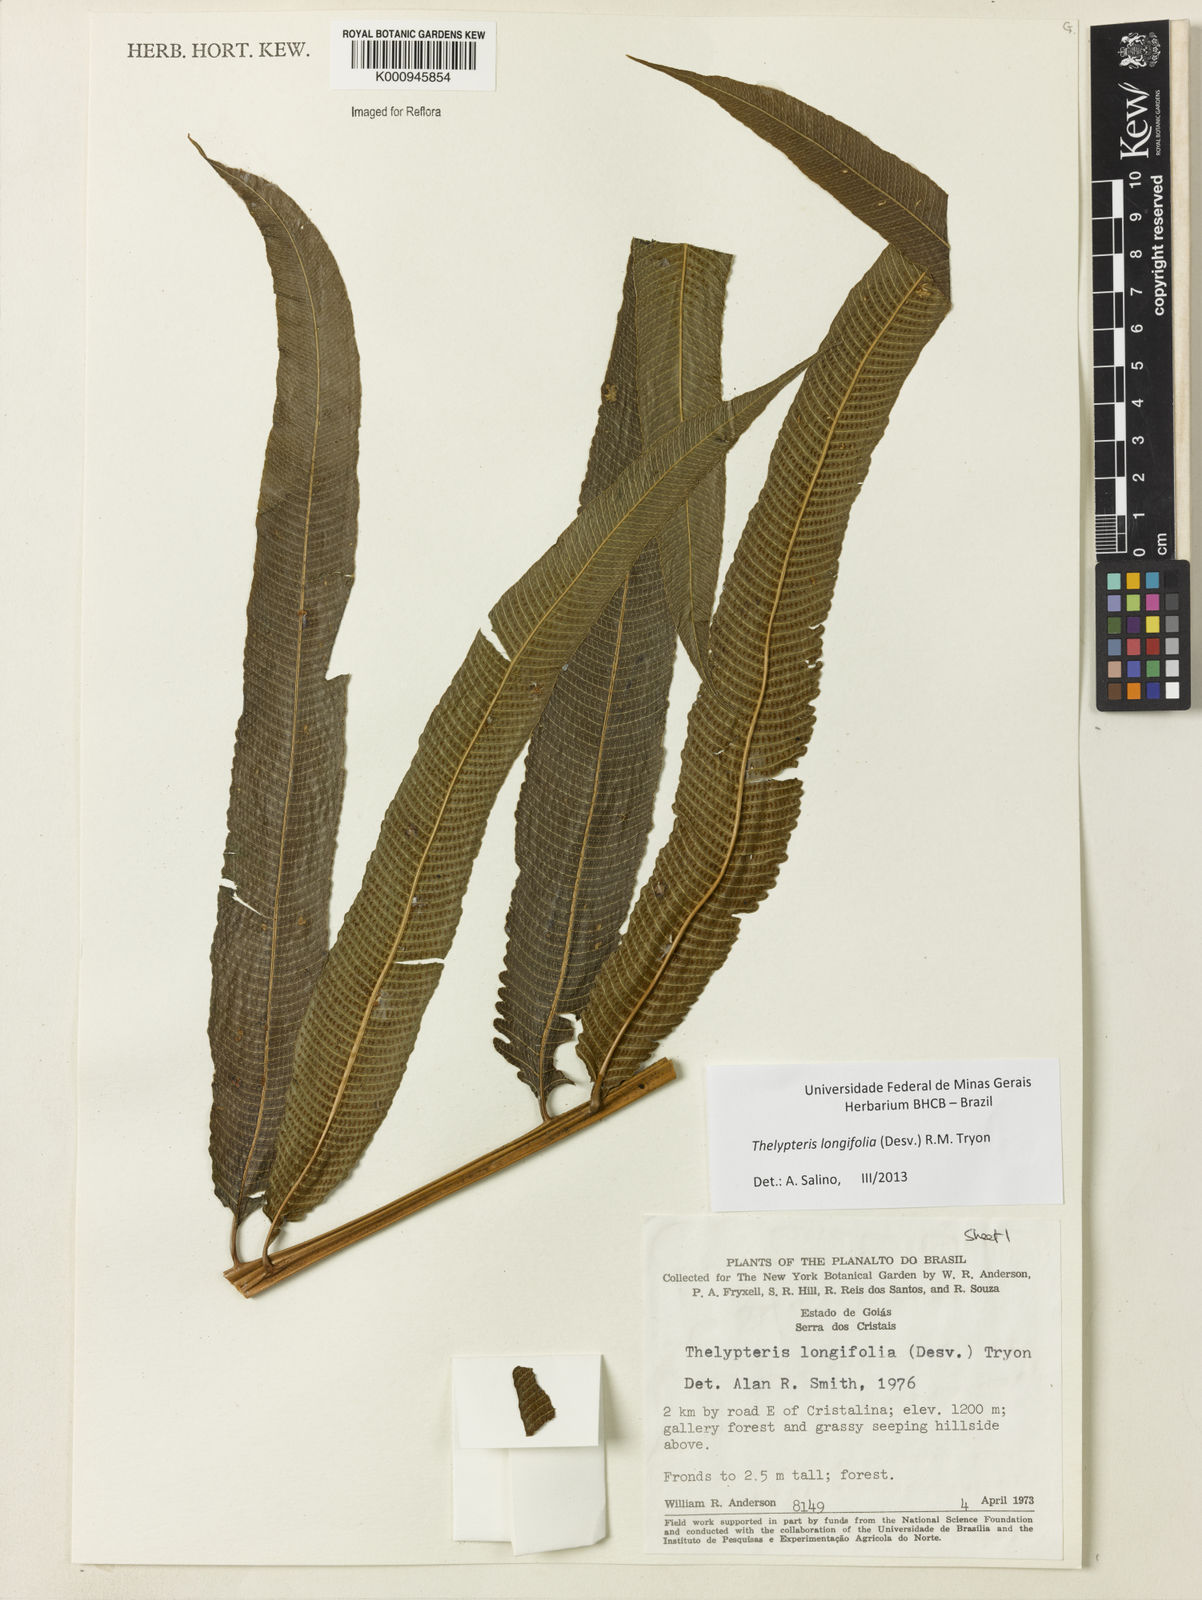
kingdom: Plantae
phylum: Tracheophyta
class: Polypodiopsida
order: Polypodiales
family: Thelypteridaceae
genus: Meniscium
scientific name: Meniscium longifolium
